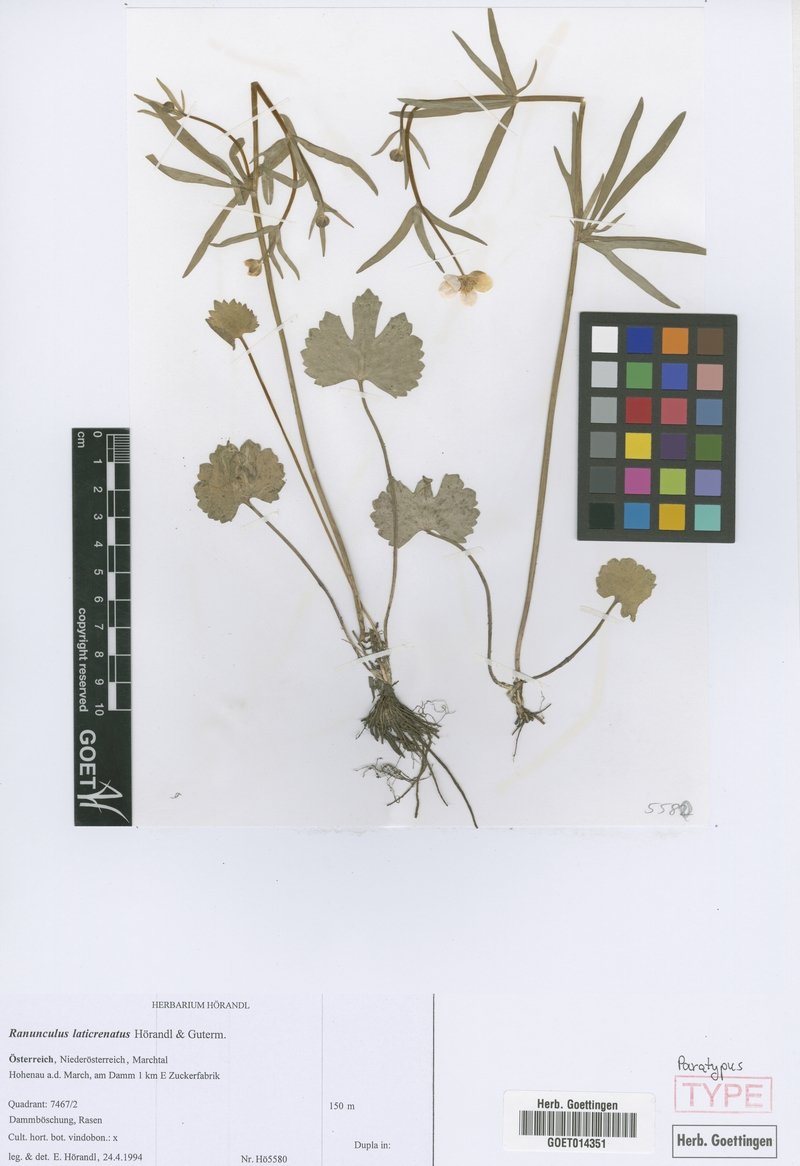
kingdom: Plantae
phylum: Tracheophyta
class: Magnoliopsida
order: Ranunculales
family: Ranunculaceae
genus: Ranunculus
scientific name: Ranunculus laticrenatus
